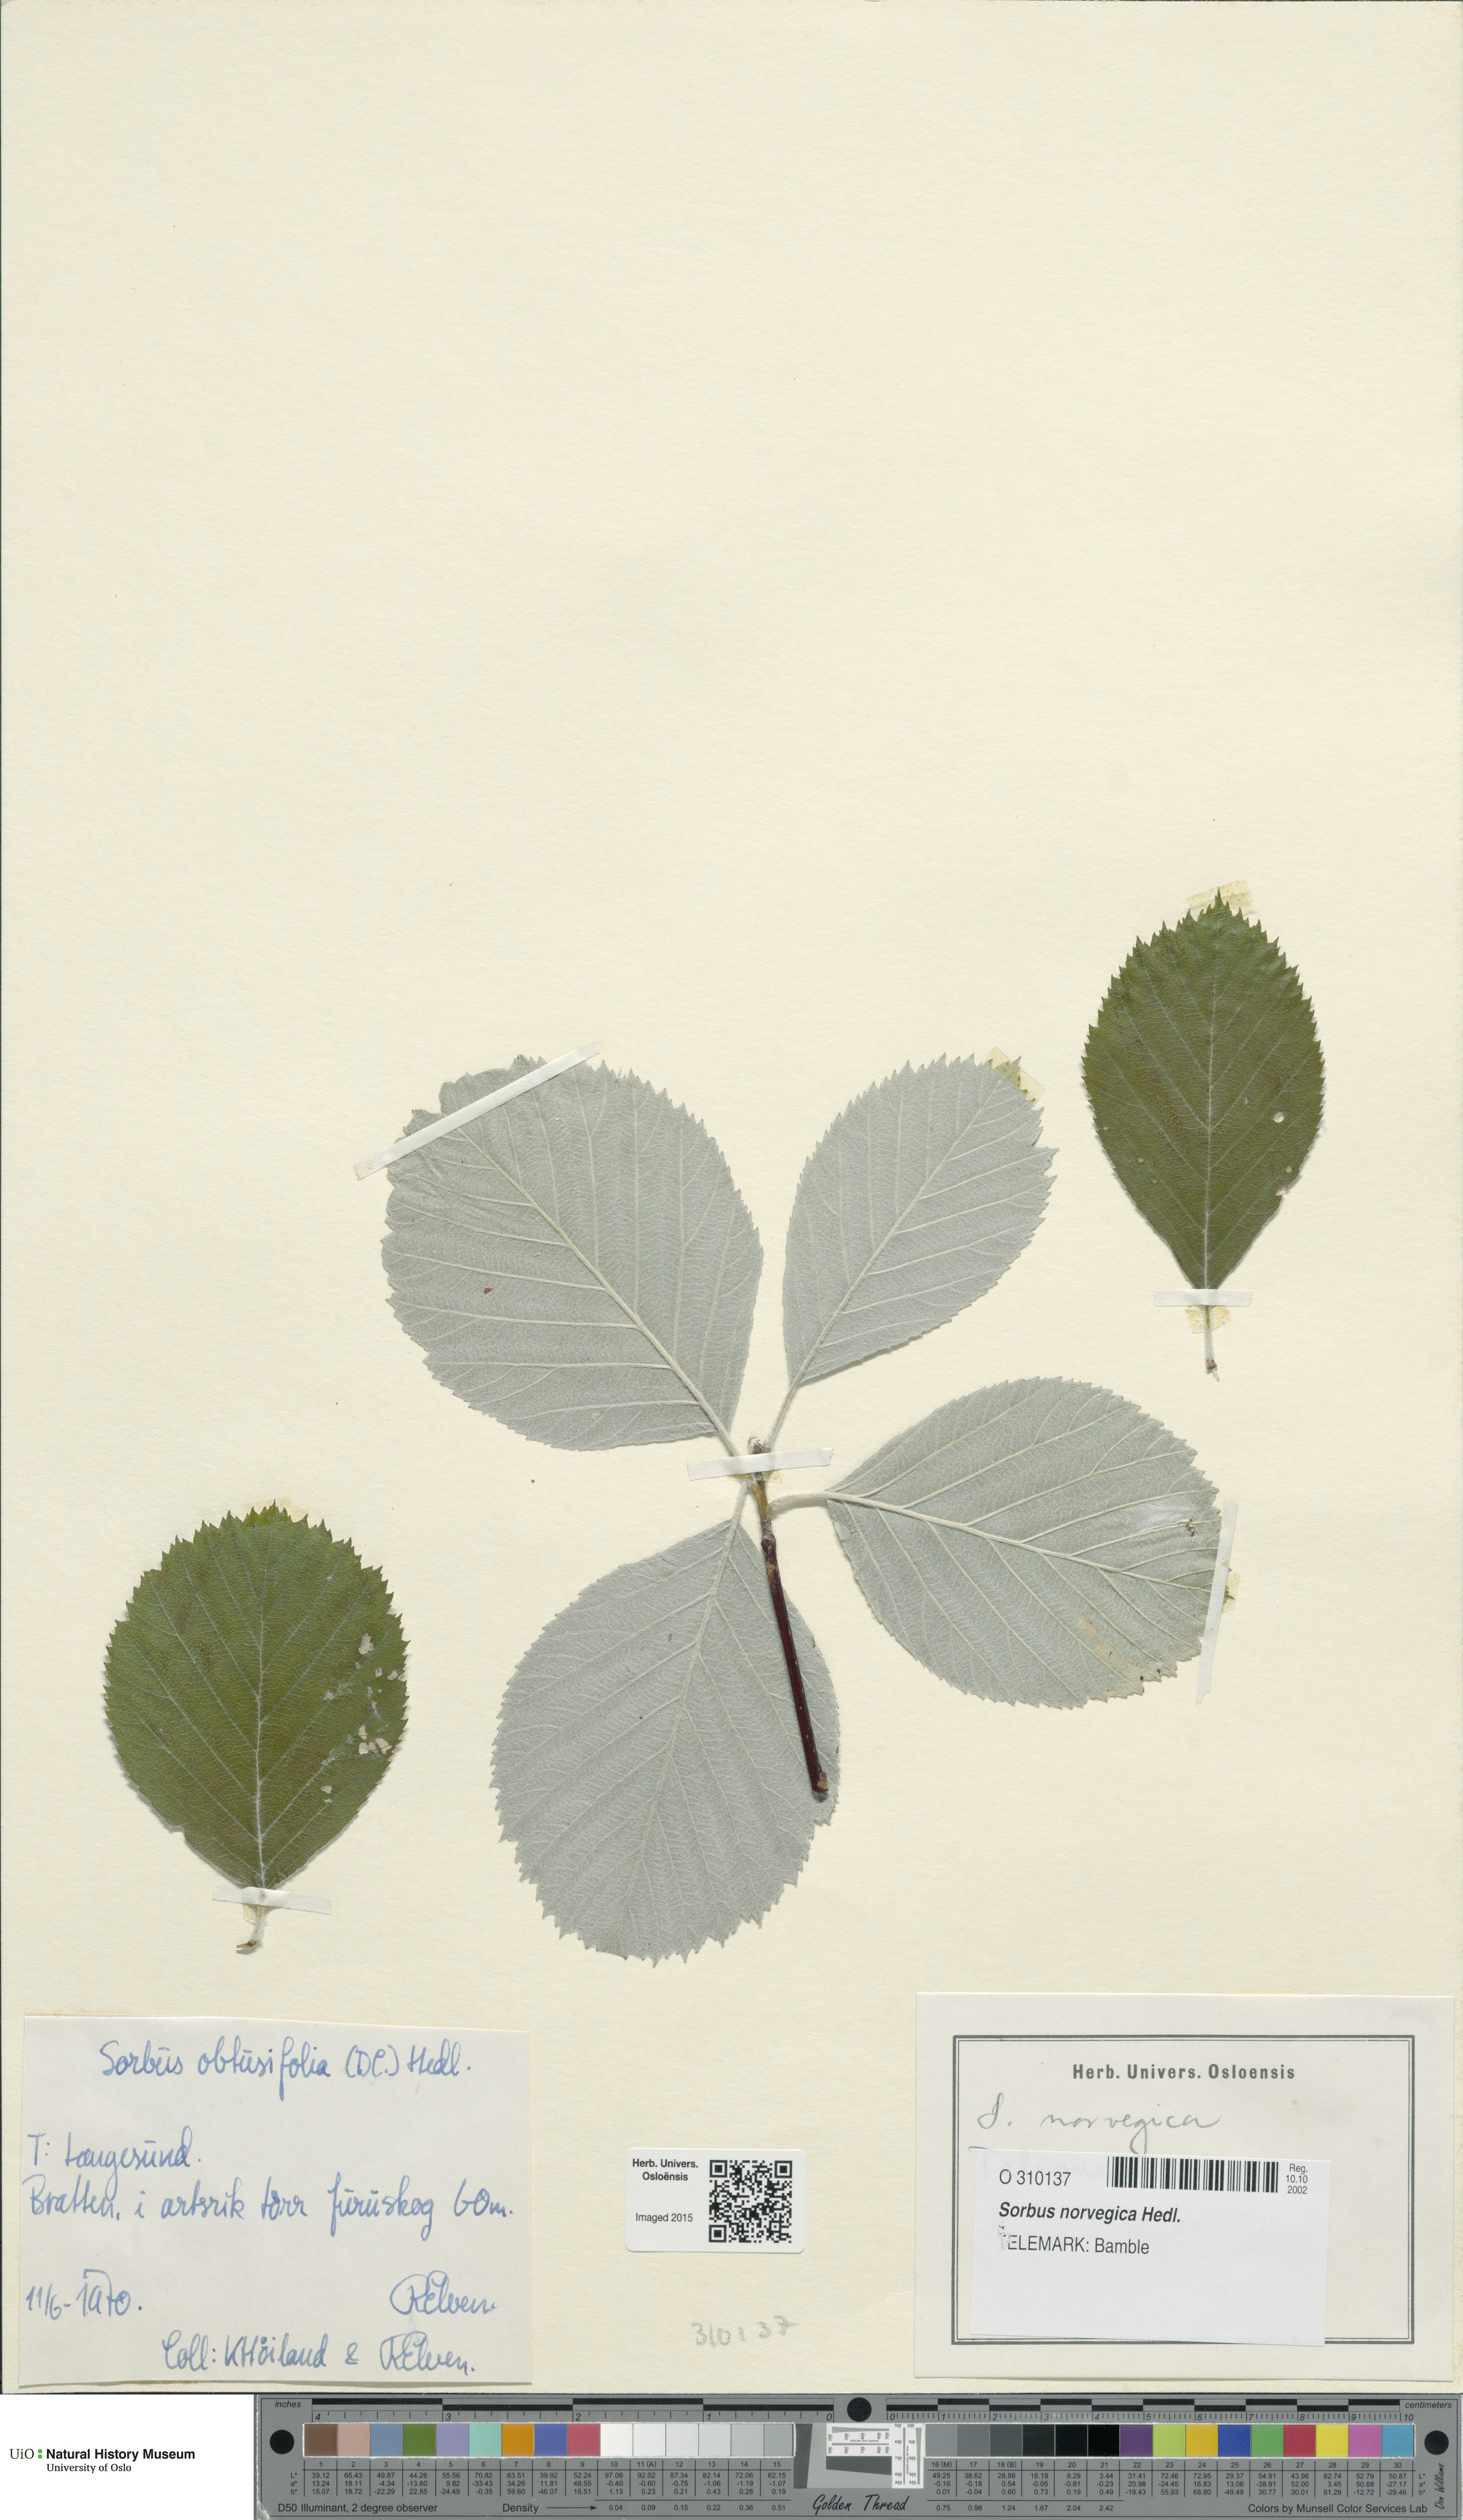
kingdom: Plantae
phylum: Tracheophyta
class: Magnoliopsida
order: Rosales
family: Rosaceae
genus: Aria
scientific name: Aria obtusifolia
